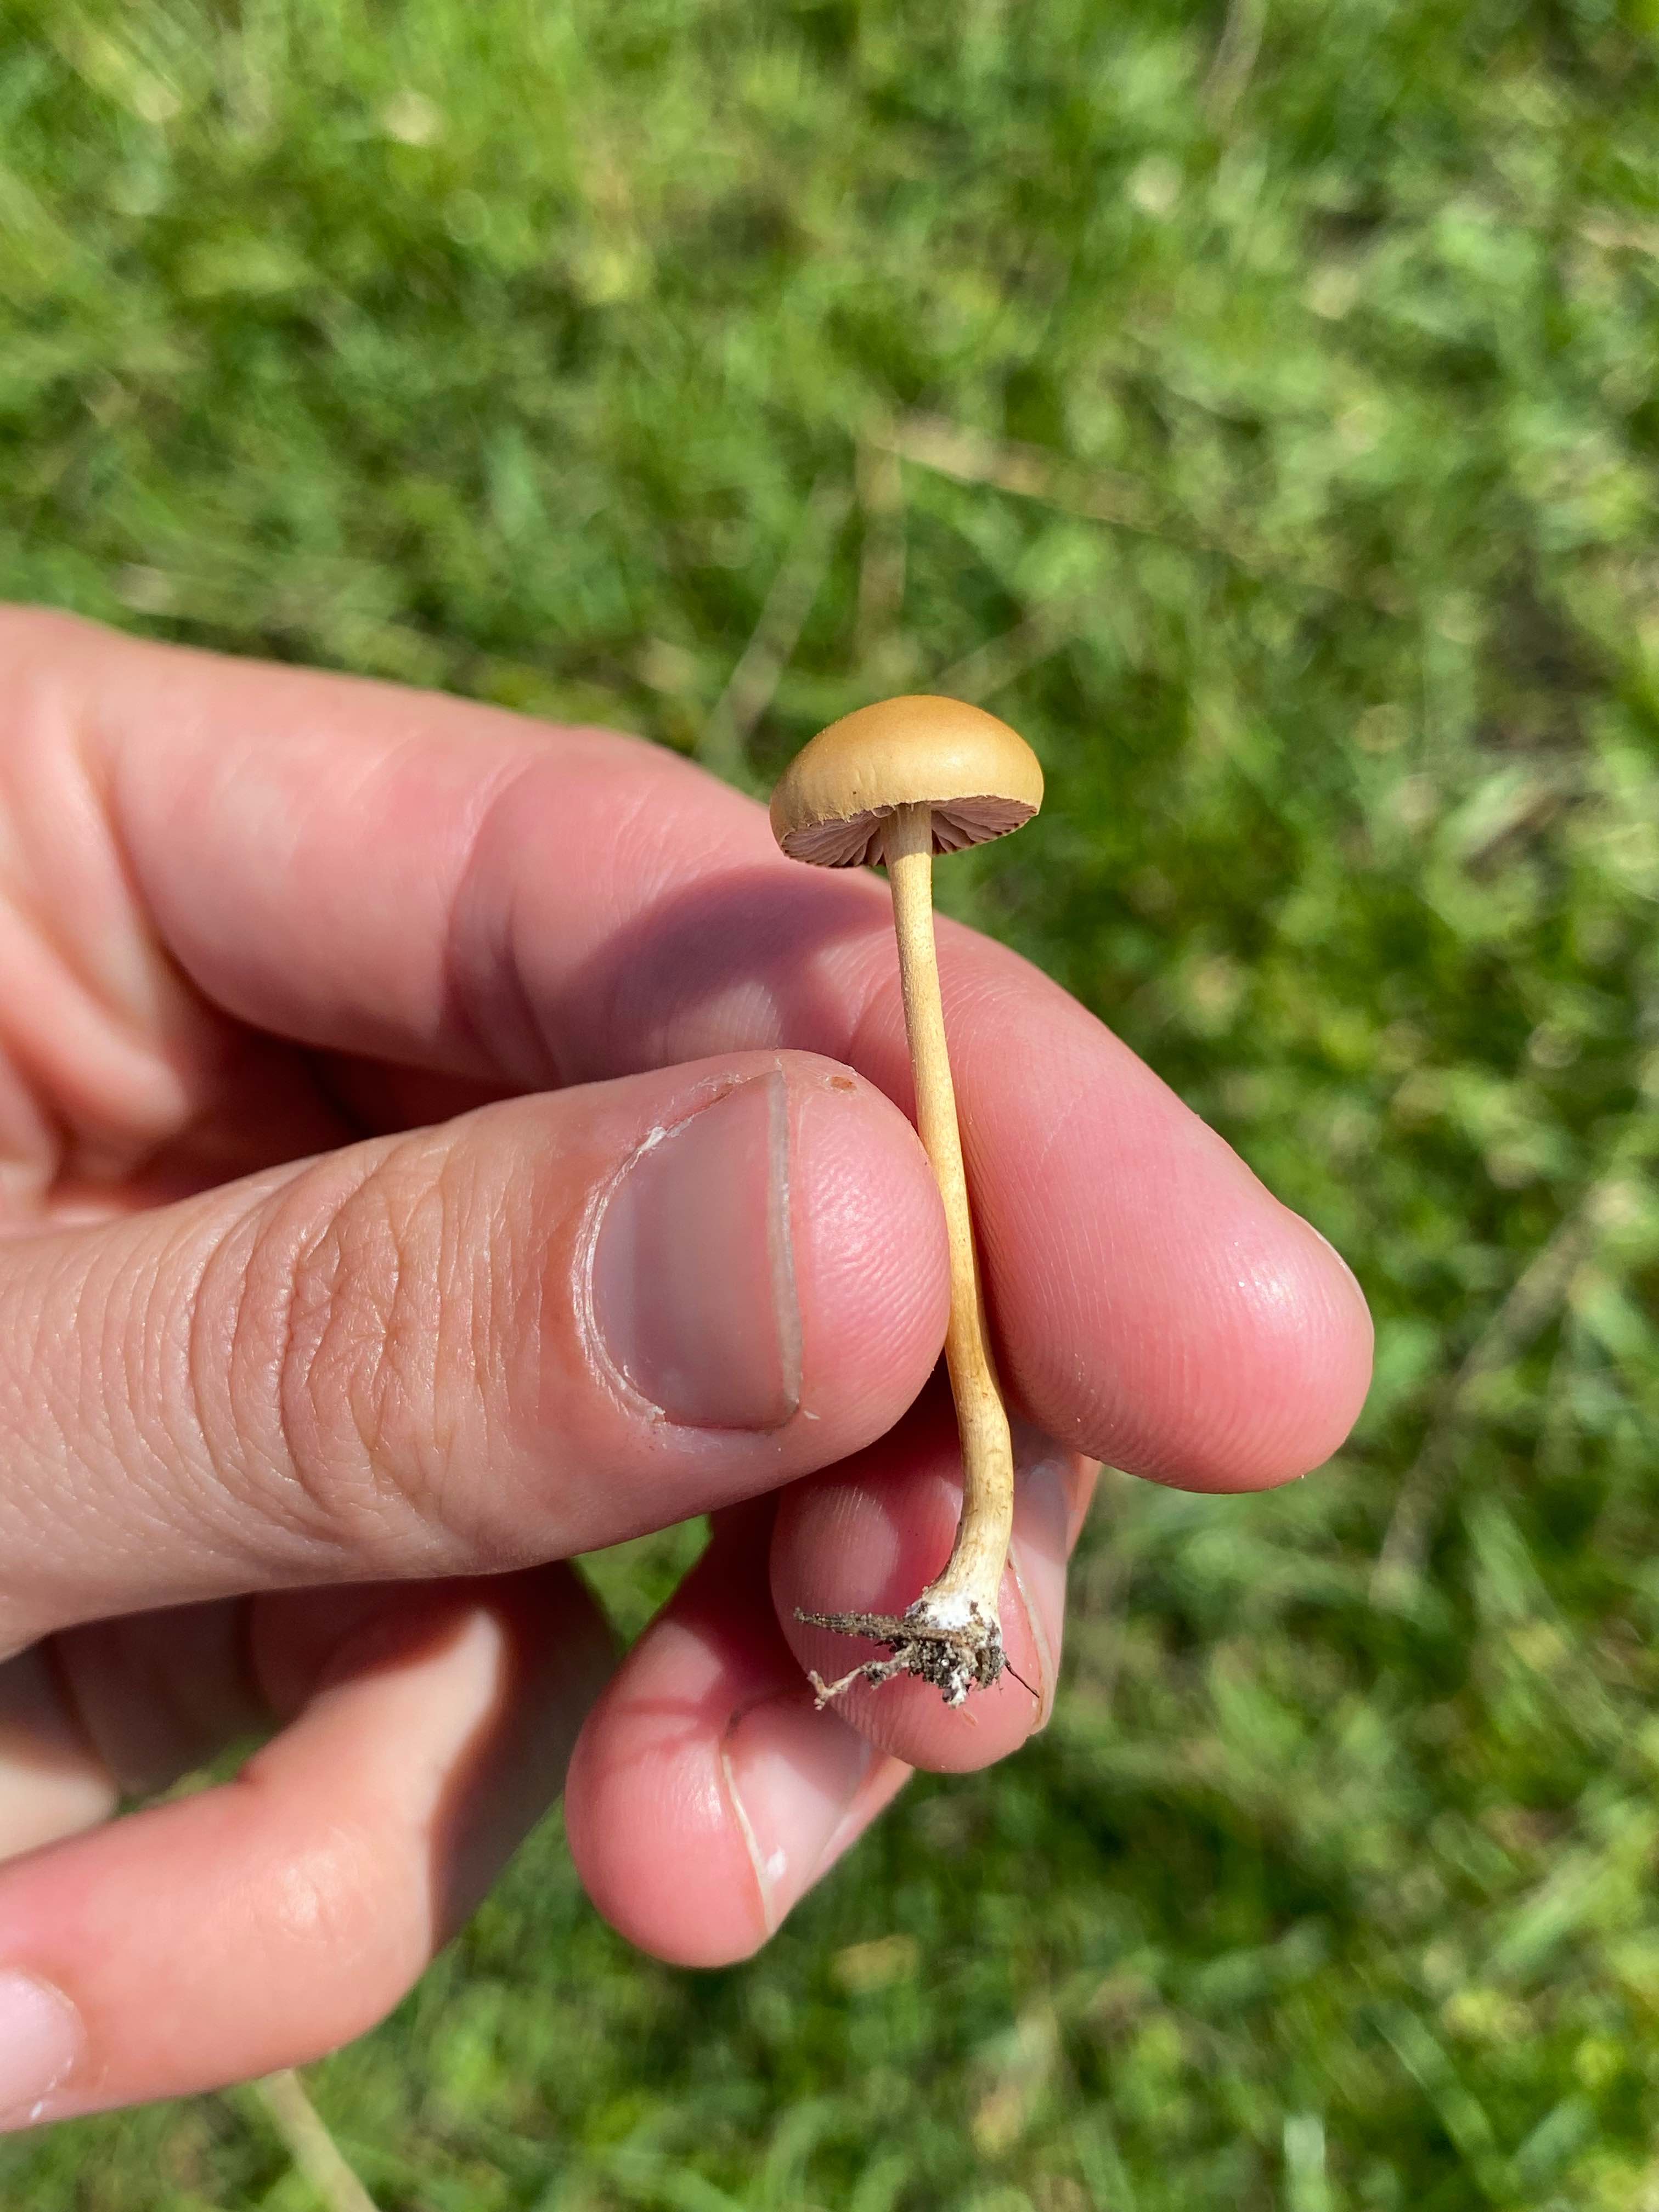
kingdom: Fungi
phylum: Basidiomycota
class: Agaricomycetes
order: Agaricales
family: Strophariaceae
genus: Agrocybe
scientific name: Agrocybe pediades
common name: almindelig agerhat
